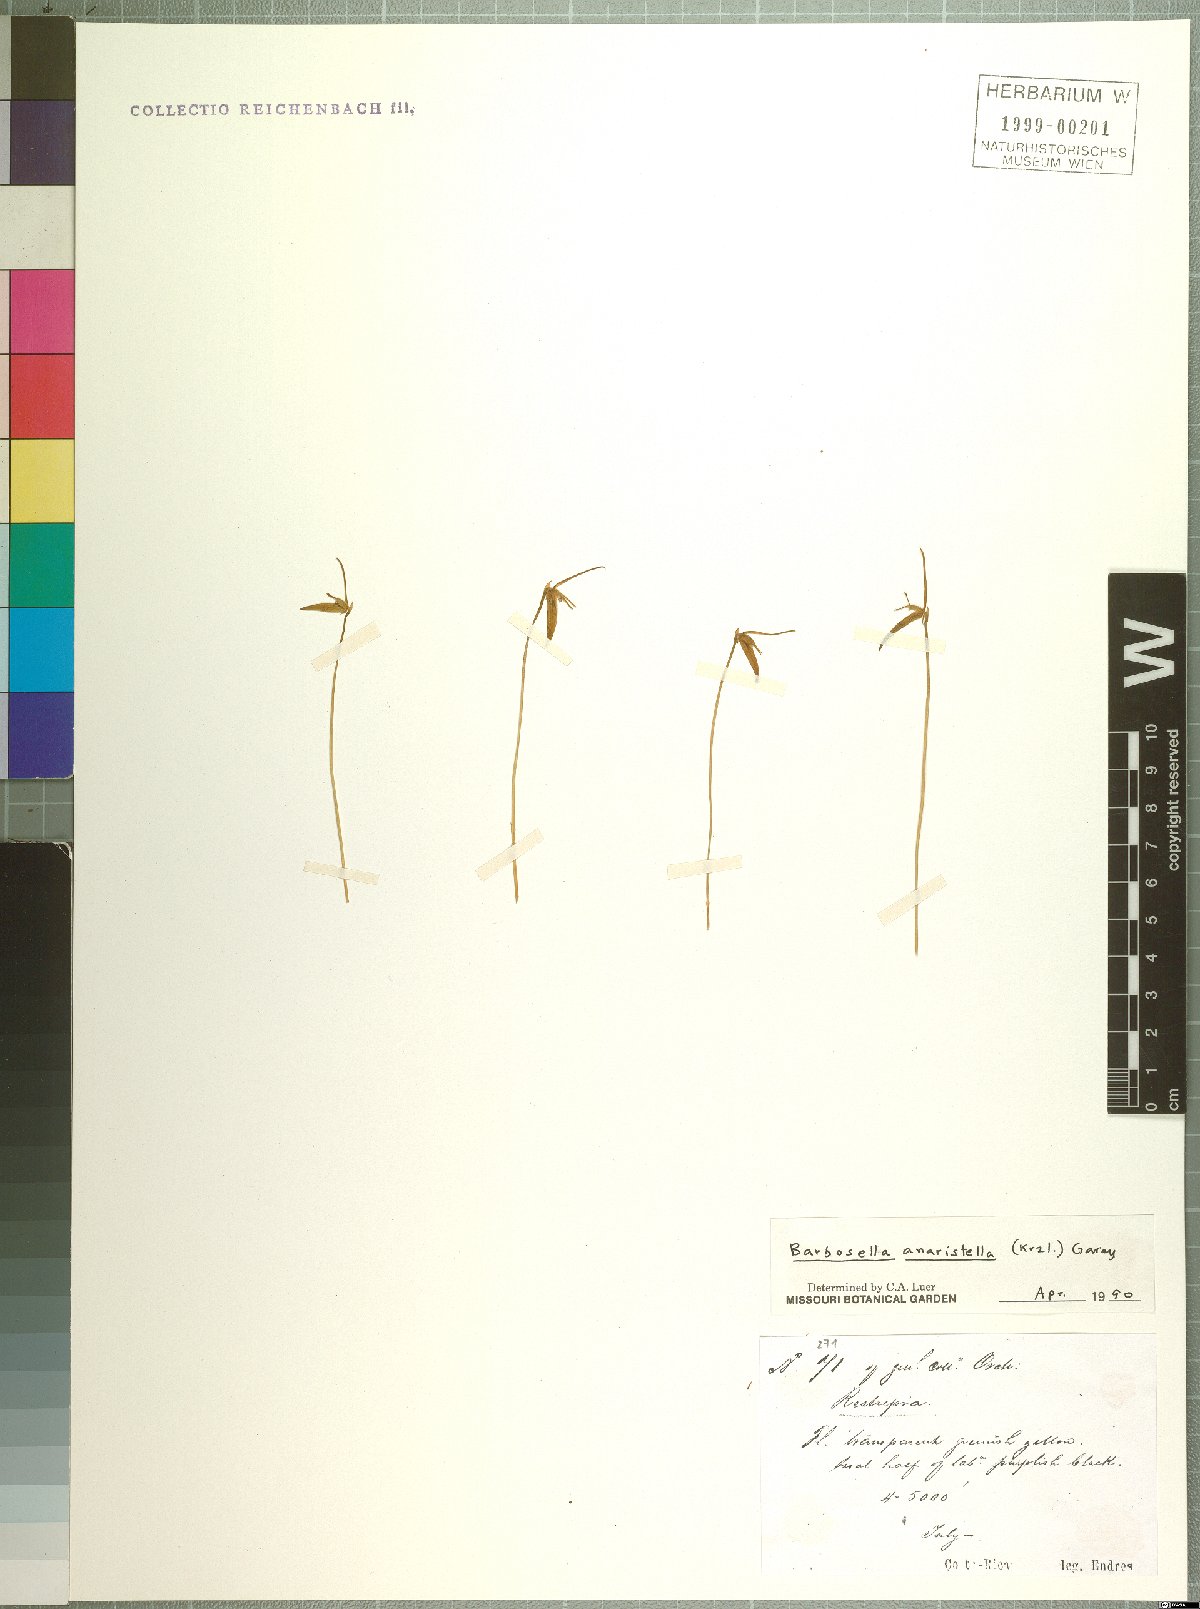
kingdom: Plantae
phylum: Tracheophyta
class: Liliopsida
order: Asparagales
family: Orchidaceae
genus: Barbosella
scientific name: Barbosella dolichorhiza
